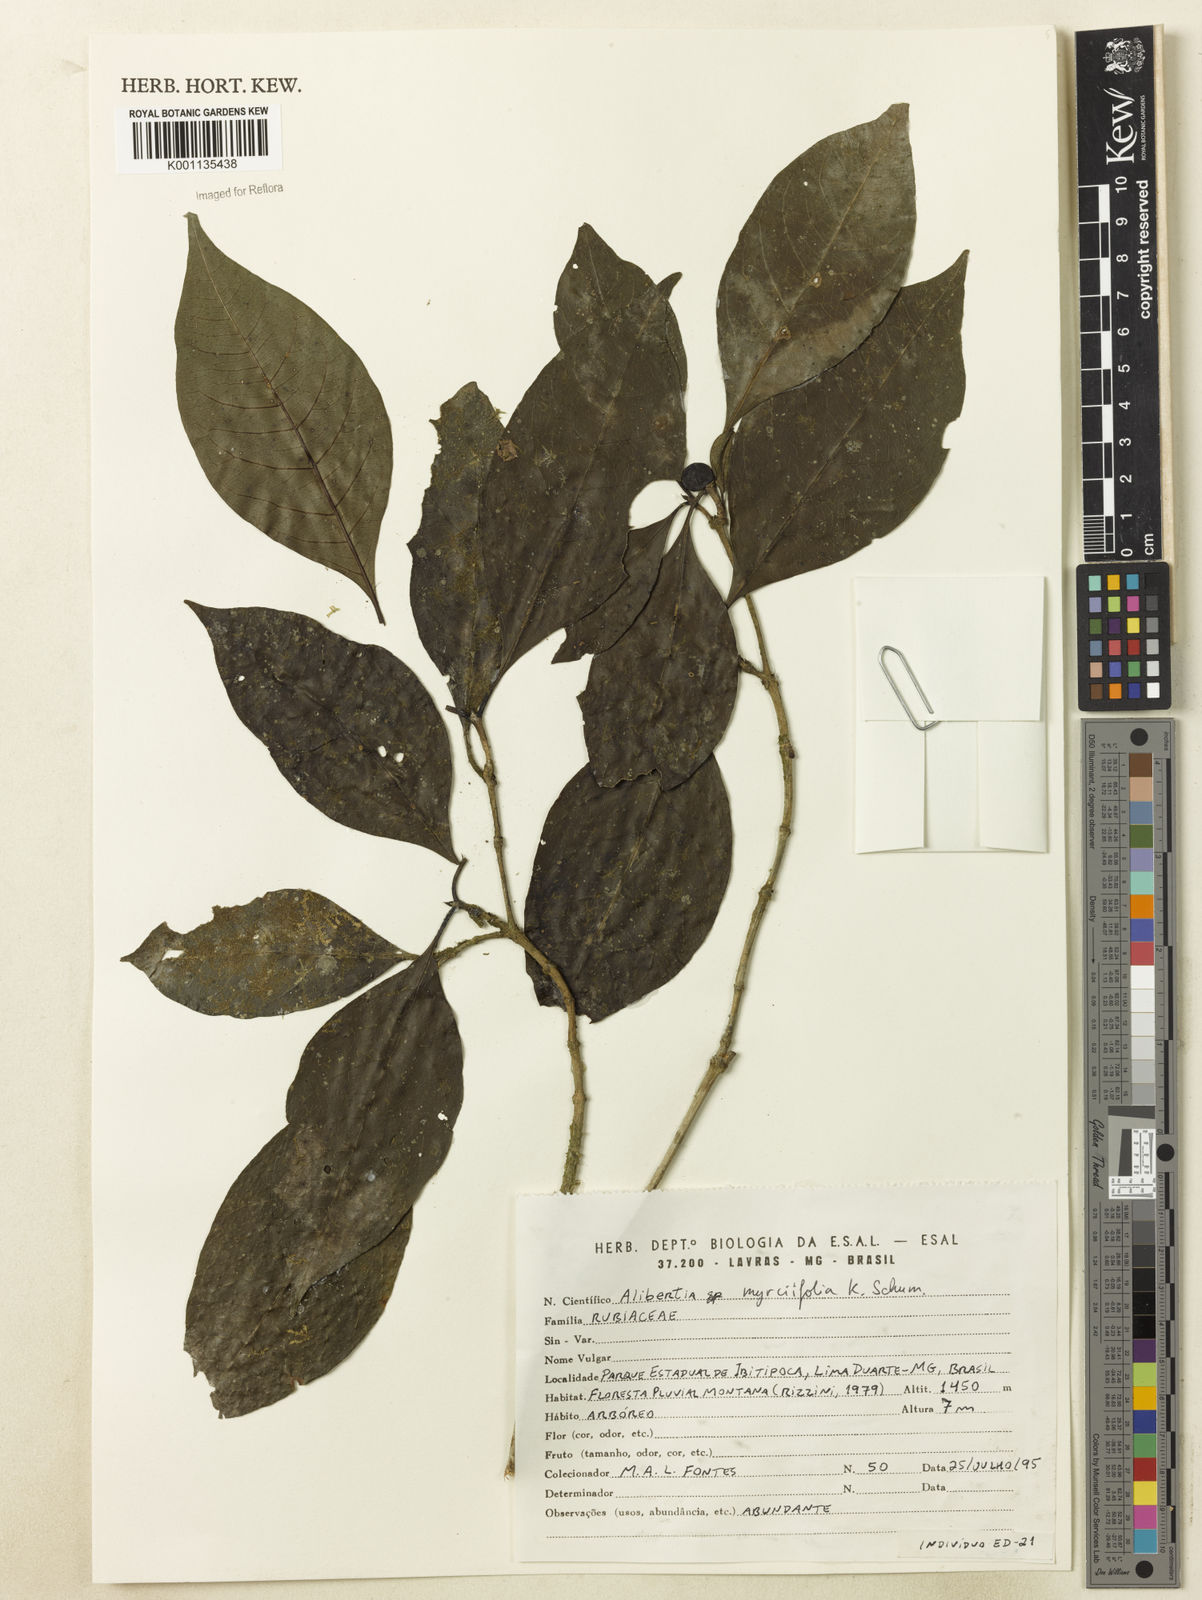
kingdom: Plantae
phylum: Tracheophyta
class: Magnoliopsida
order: Gentianales
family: Rubiaceae
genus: Cordiera
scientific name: Cordiera myrciifolia
